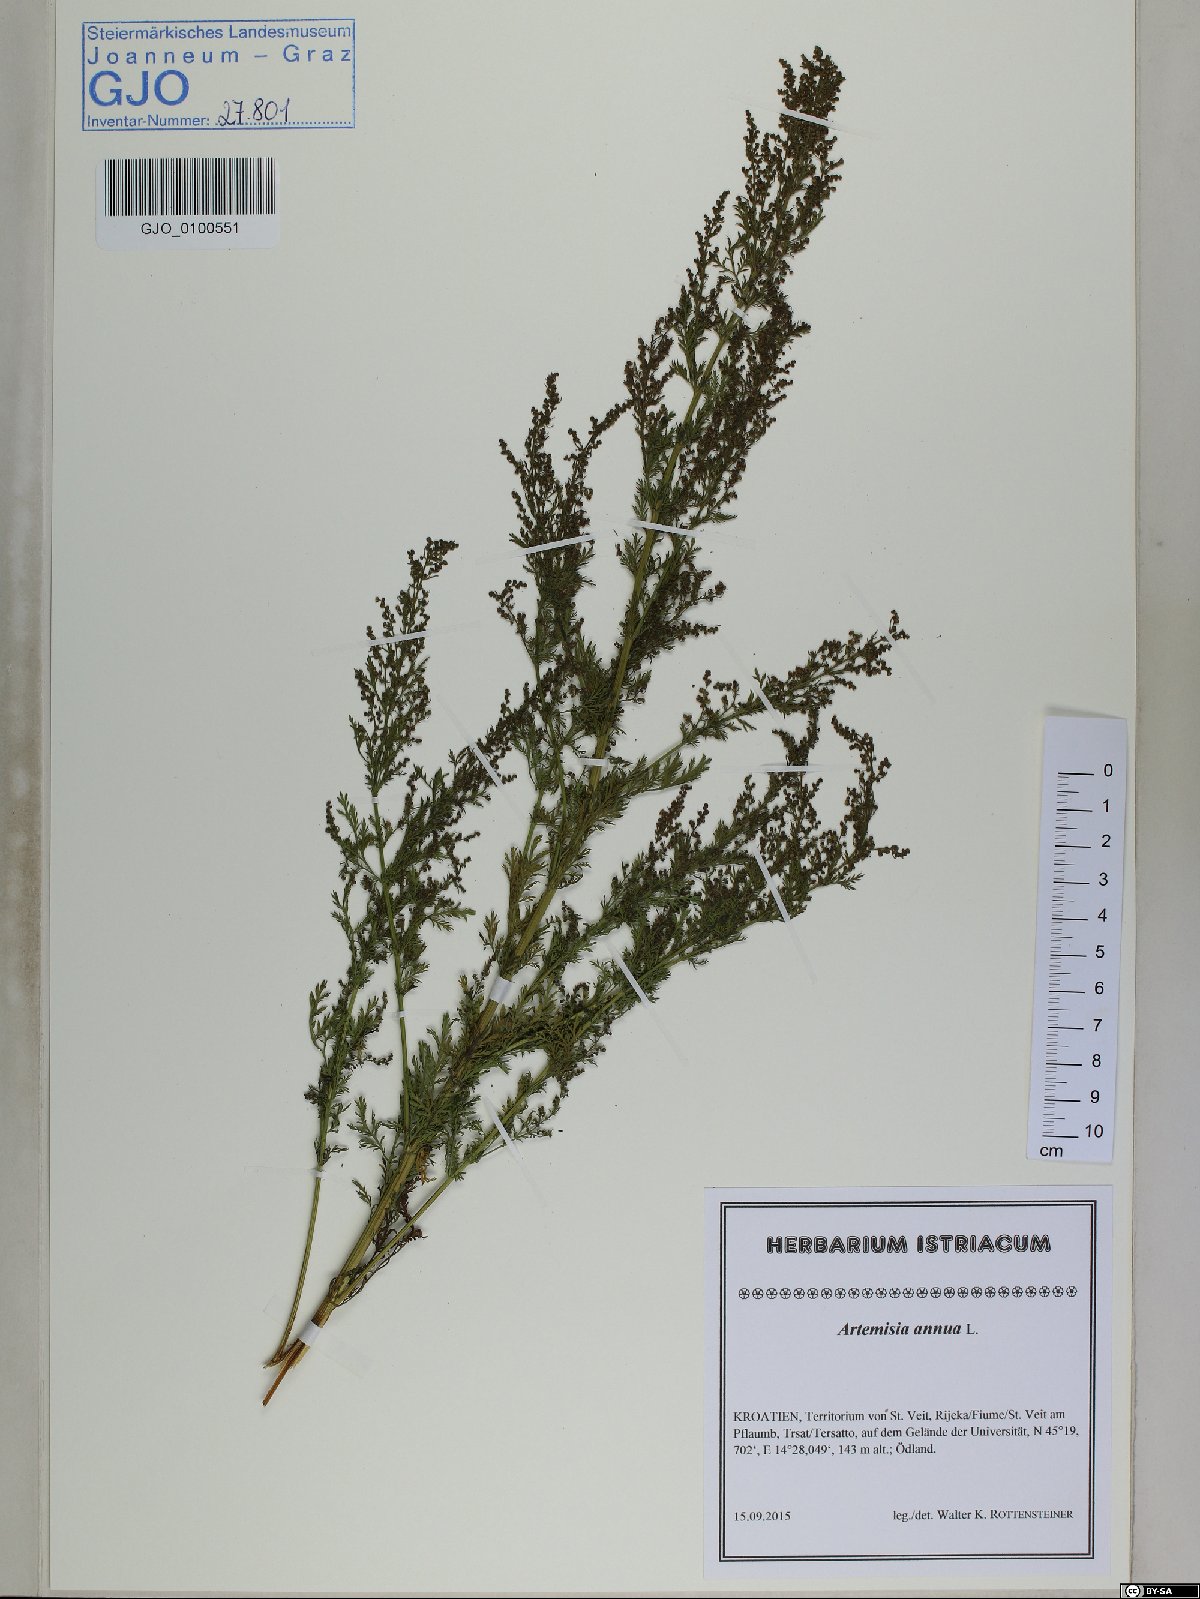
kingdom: Plantae
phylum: Tracheophyta
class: Magnoliopsida
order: Asterales
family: Asteraceae
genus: Artemisia
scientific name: Artemisia annua
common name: Sweet sagewort
